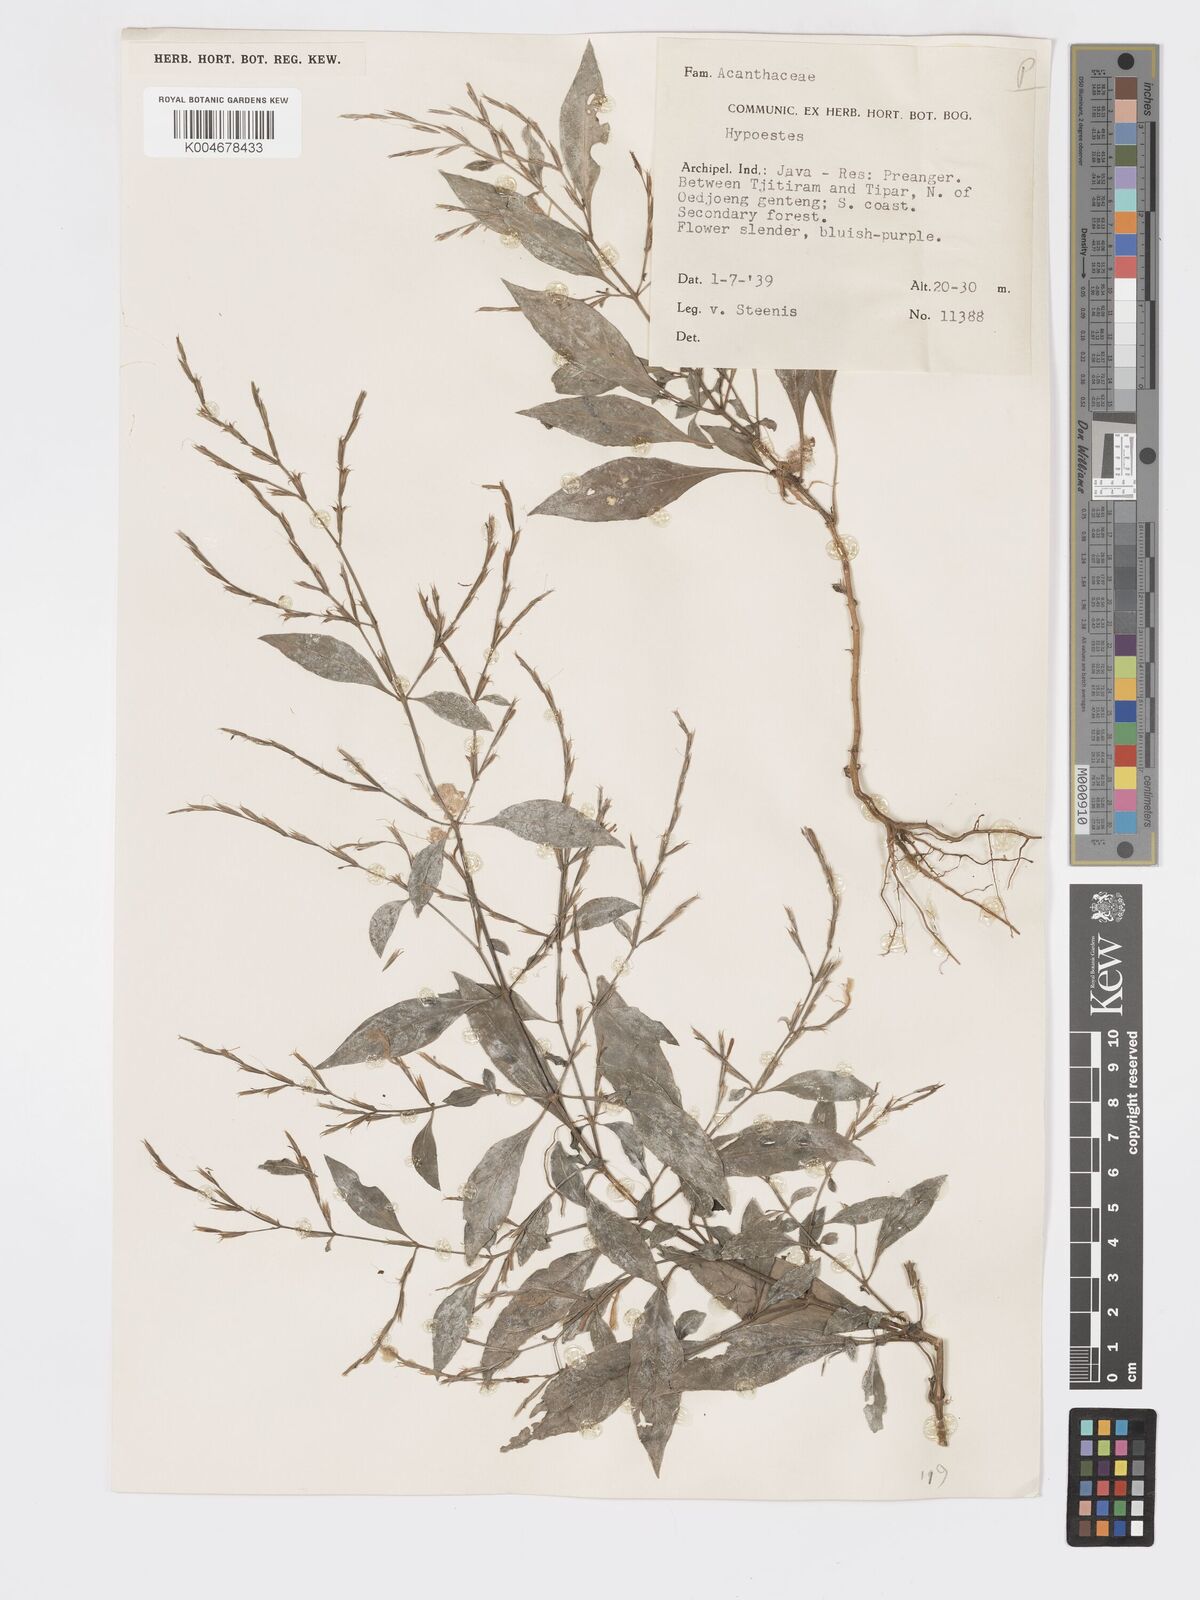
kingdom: Plantae
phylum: Tracheophyta
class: Magnoliopsida
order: Lamiales
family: Acanthaceae
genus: Hypoestes
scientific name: Hypoestes
